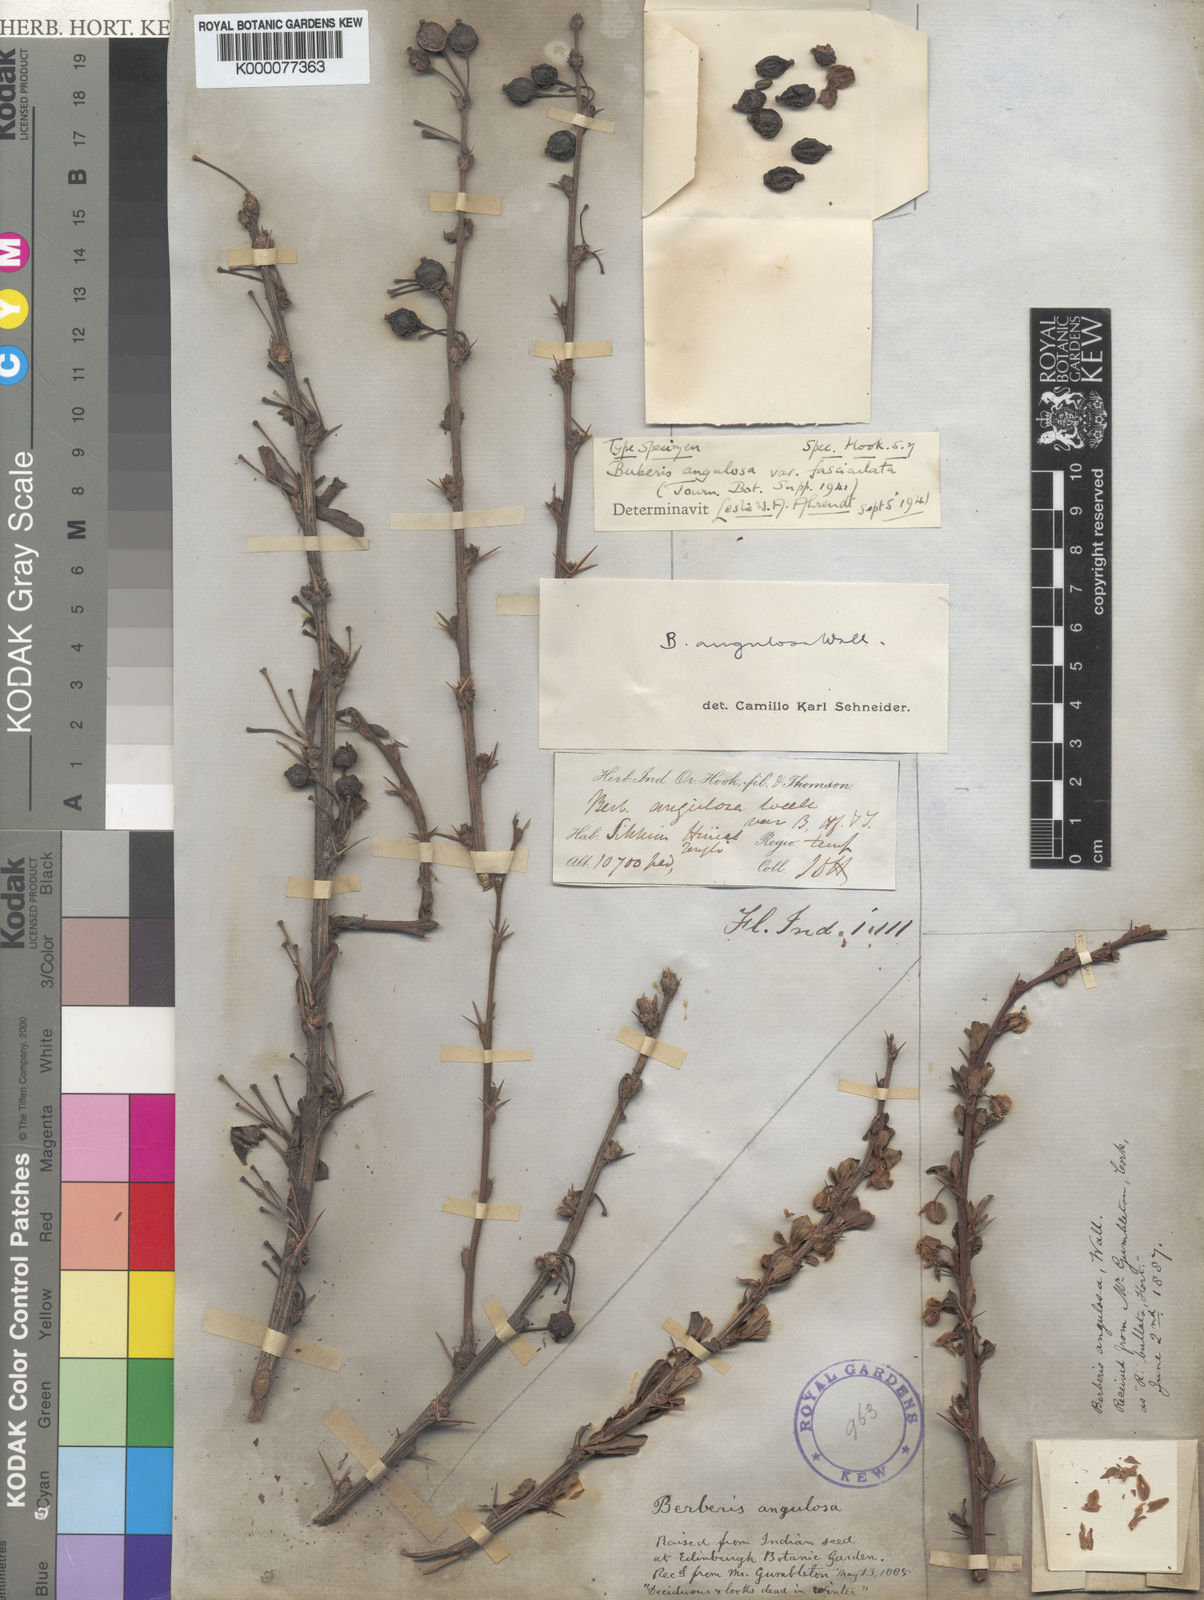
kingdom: Plantae
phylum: Tracheophyta
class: Magnoliopsida
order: Ranunculales
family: Berberidaceae
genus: Berberis
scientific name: Berberis
